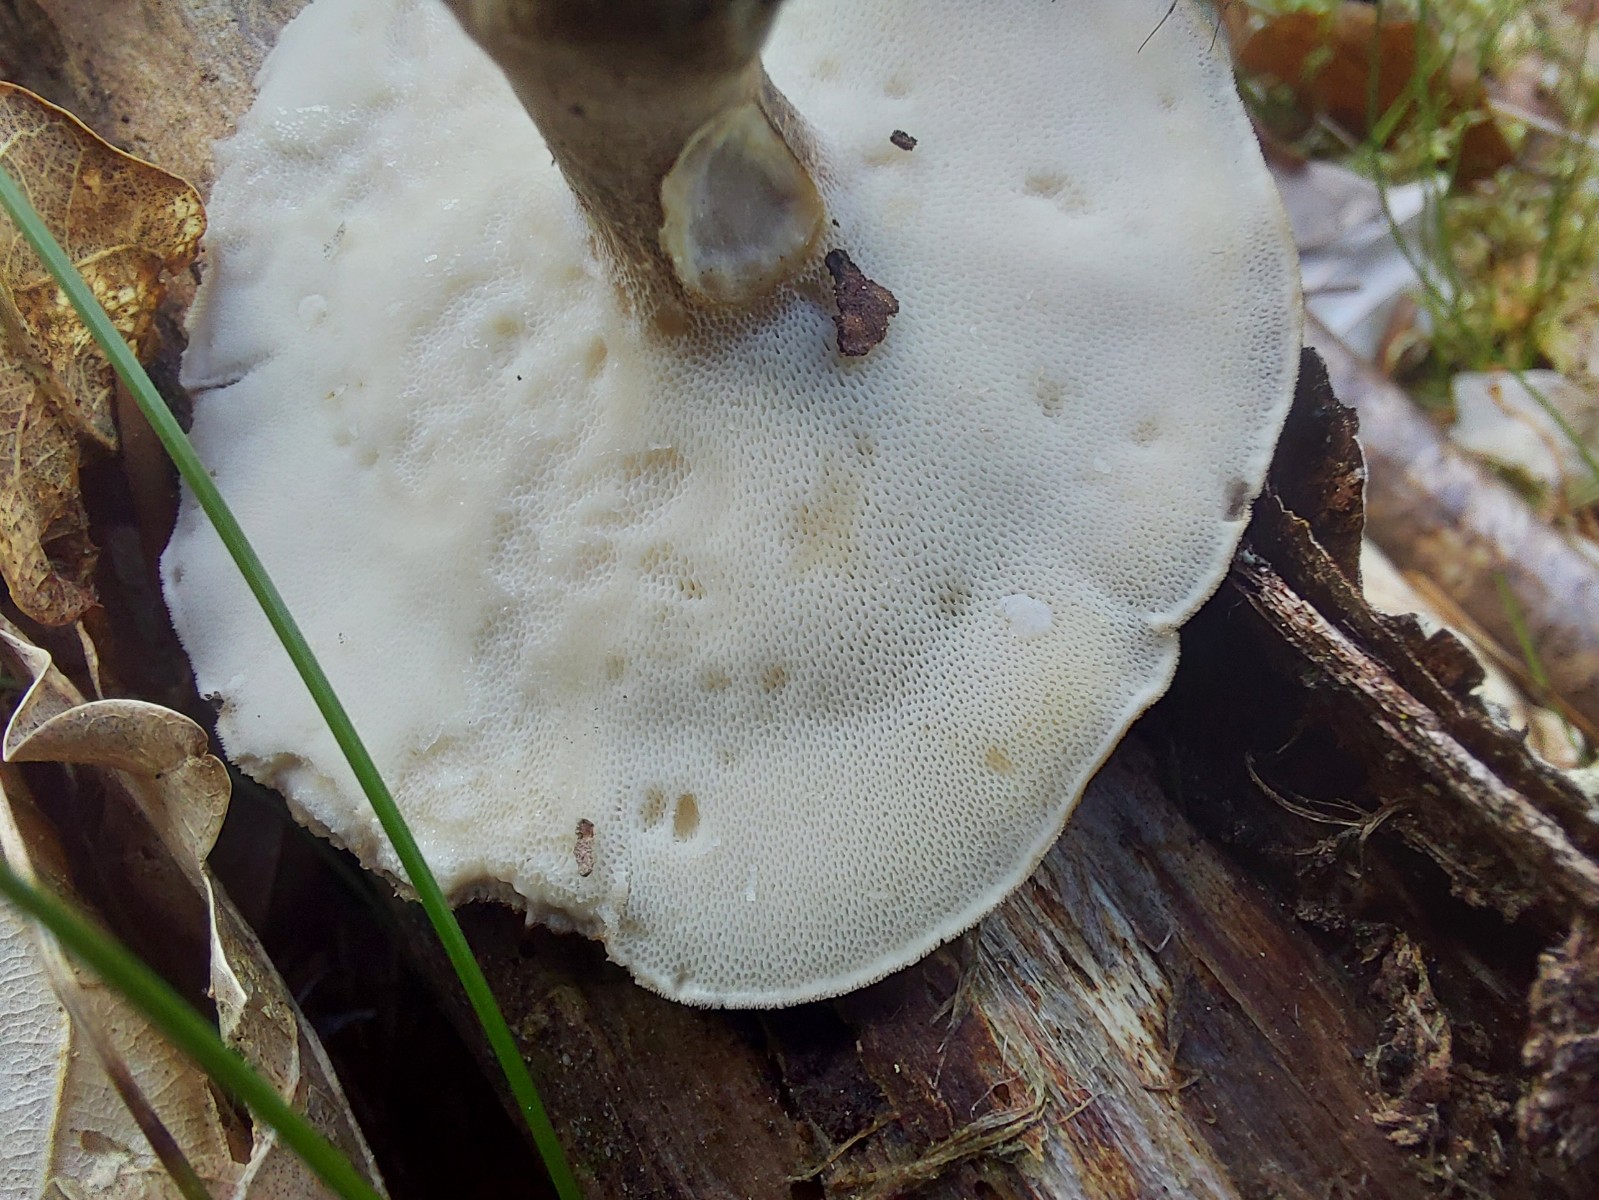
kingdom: Fungi
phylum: Basidiomycota
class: Agaricomycetes
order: Polyporales
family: Polyporaceae
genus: Lentinus
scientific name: Lentinus substrictus
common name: forårs-stilkporesvamp
